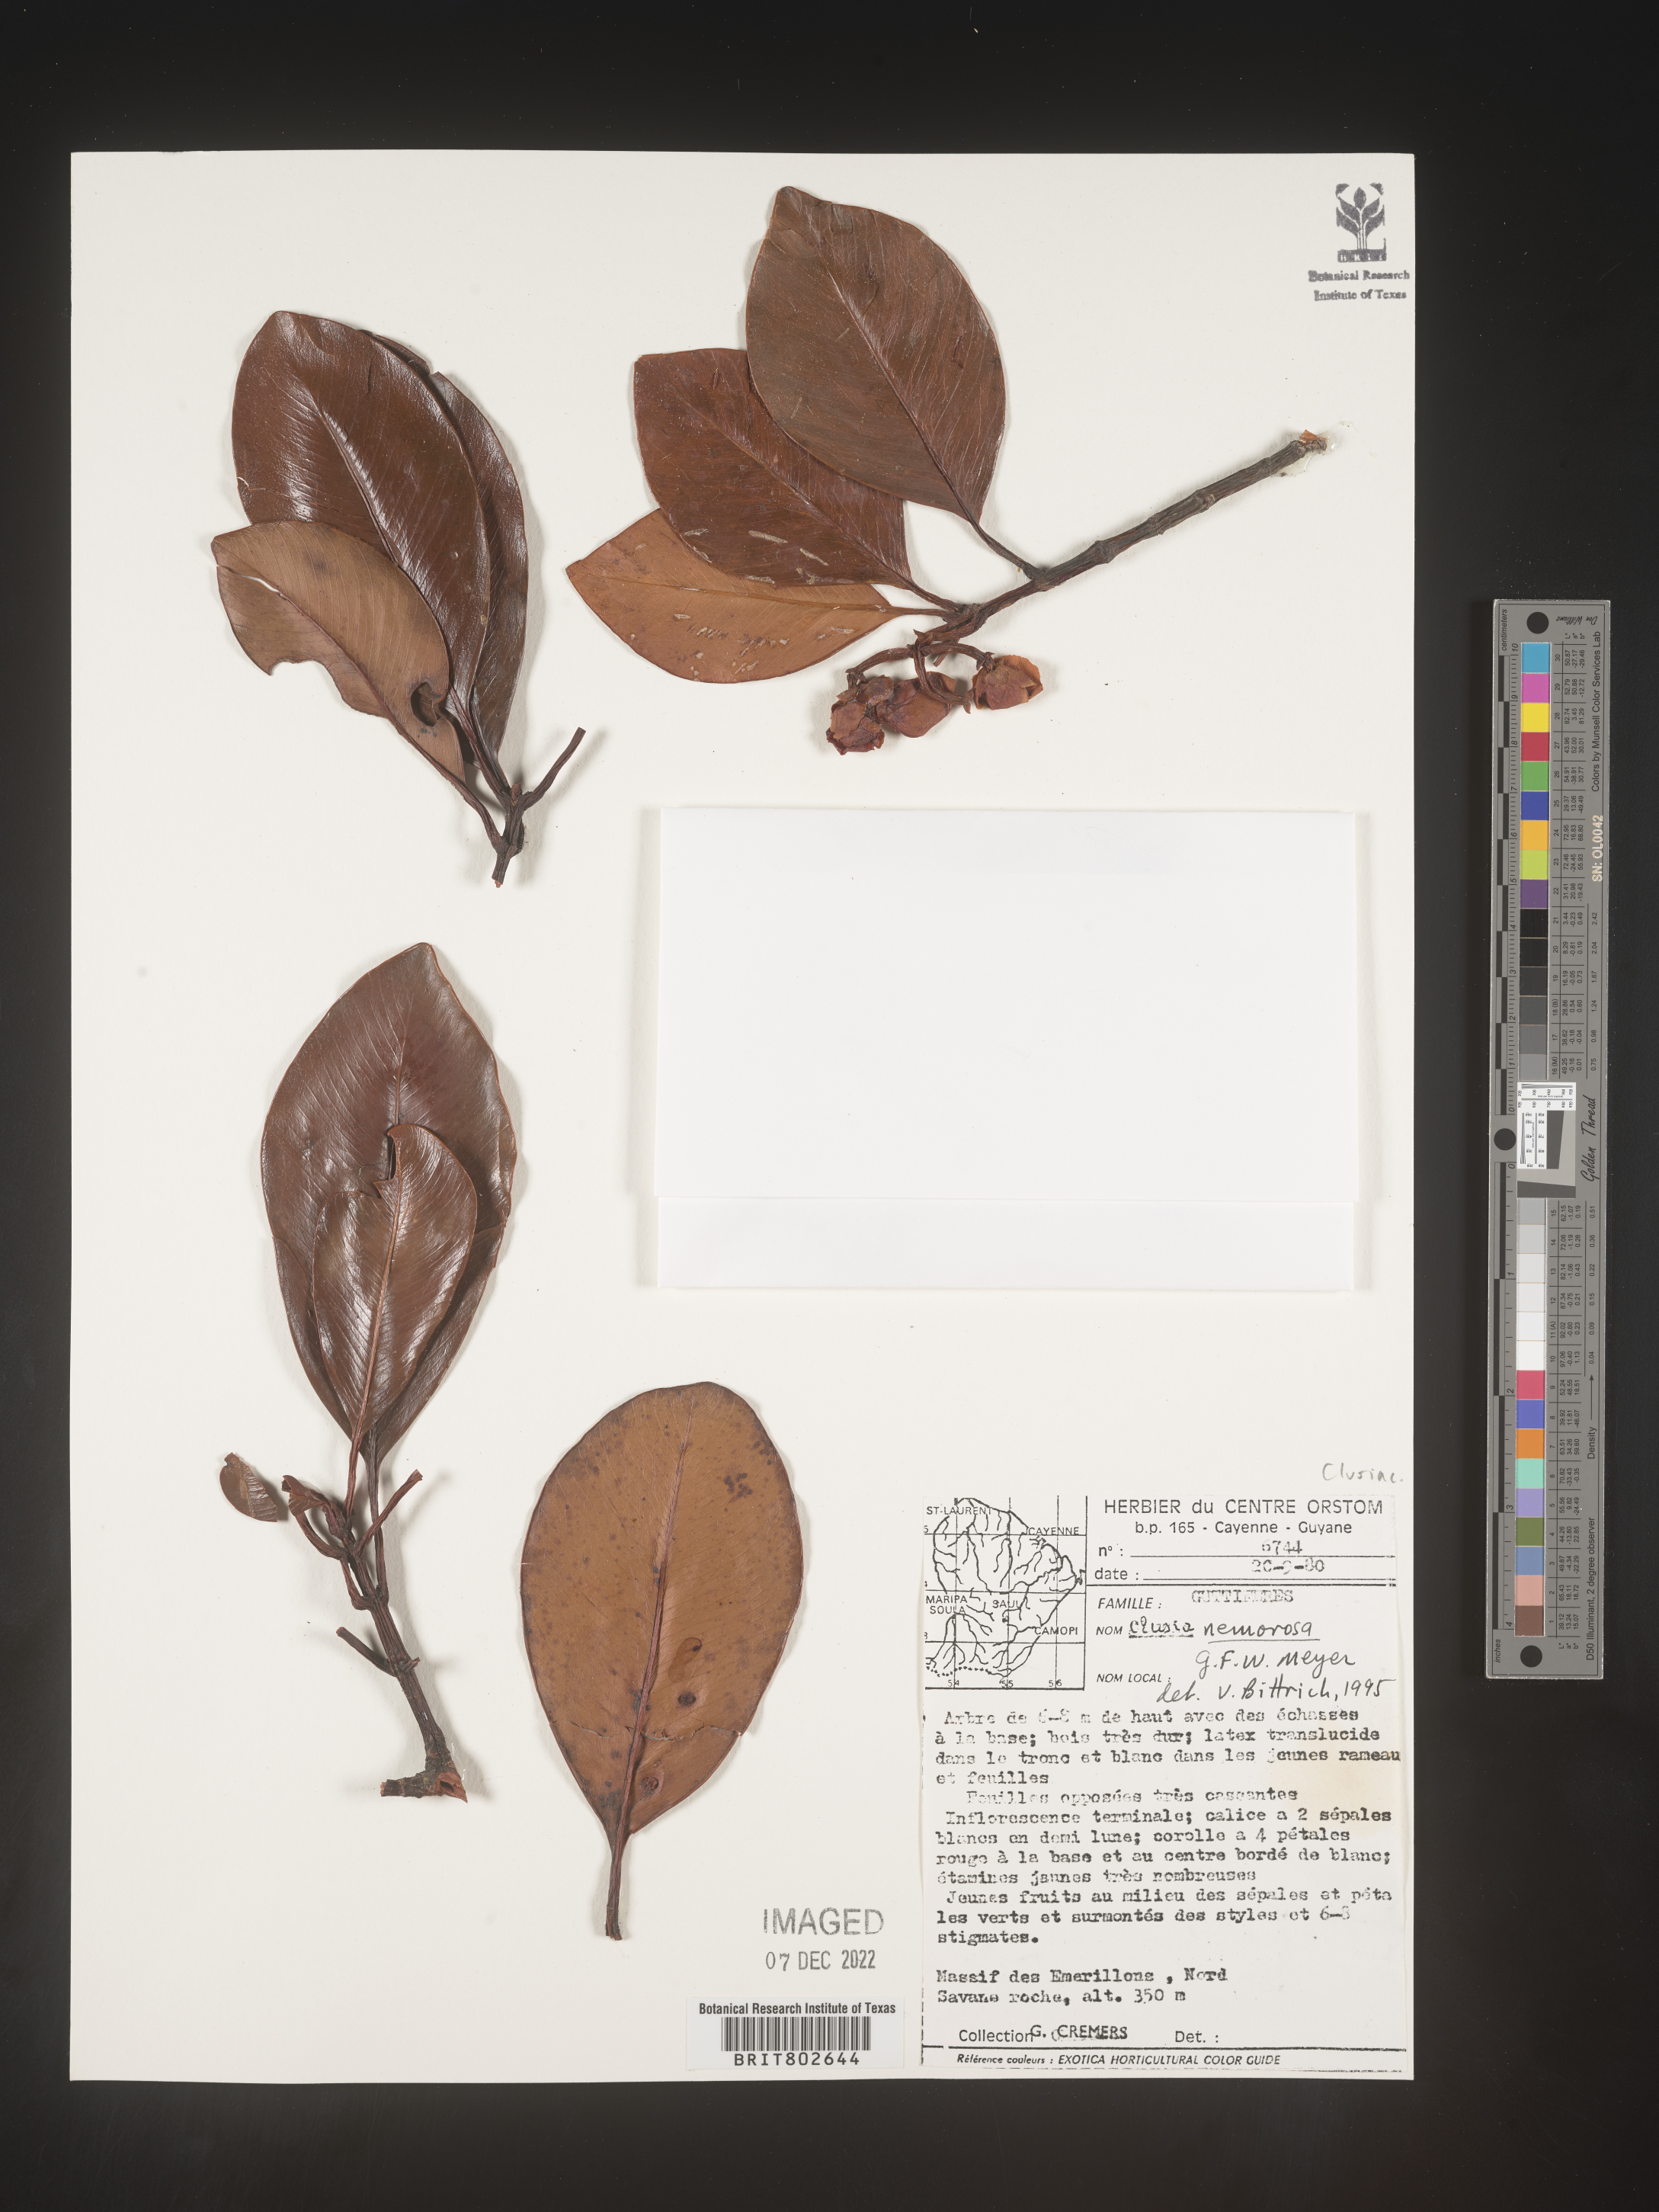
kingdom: Plantae
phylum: Tracheophyta
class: Magnoliopsida
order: Malpighiales
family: Clusiaceae
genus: Clusia
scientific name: Clusia nemorosa
